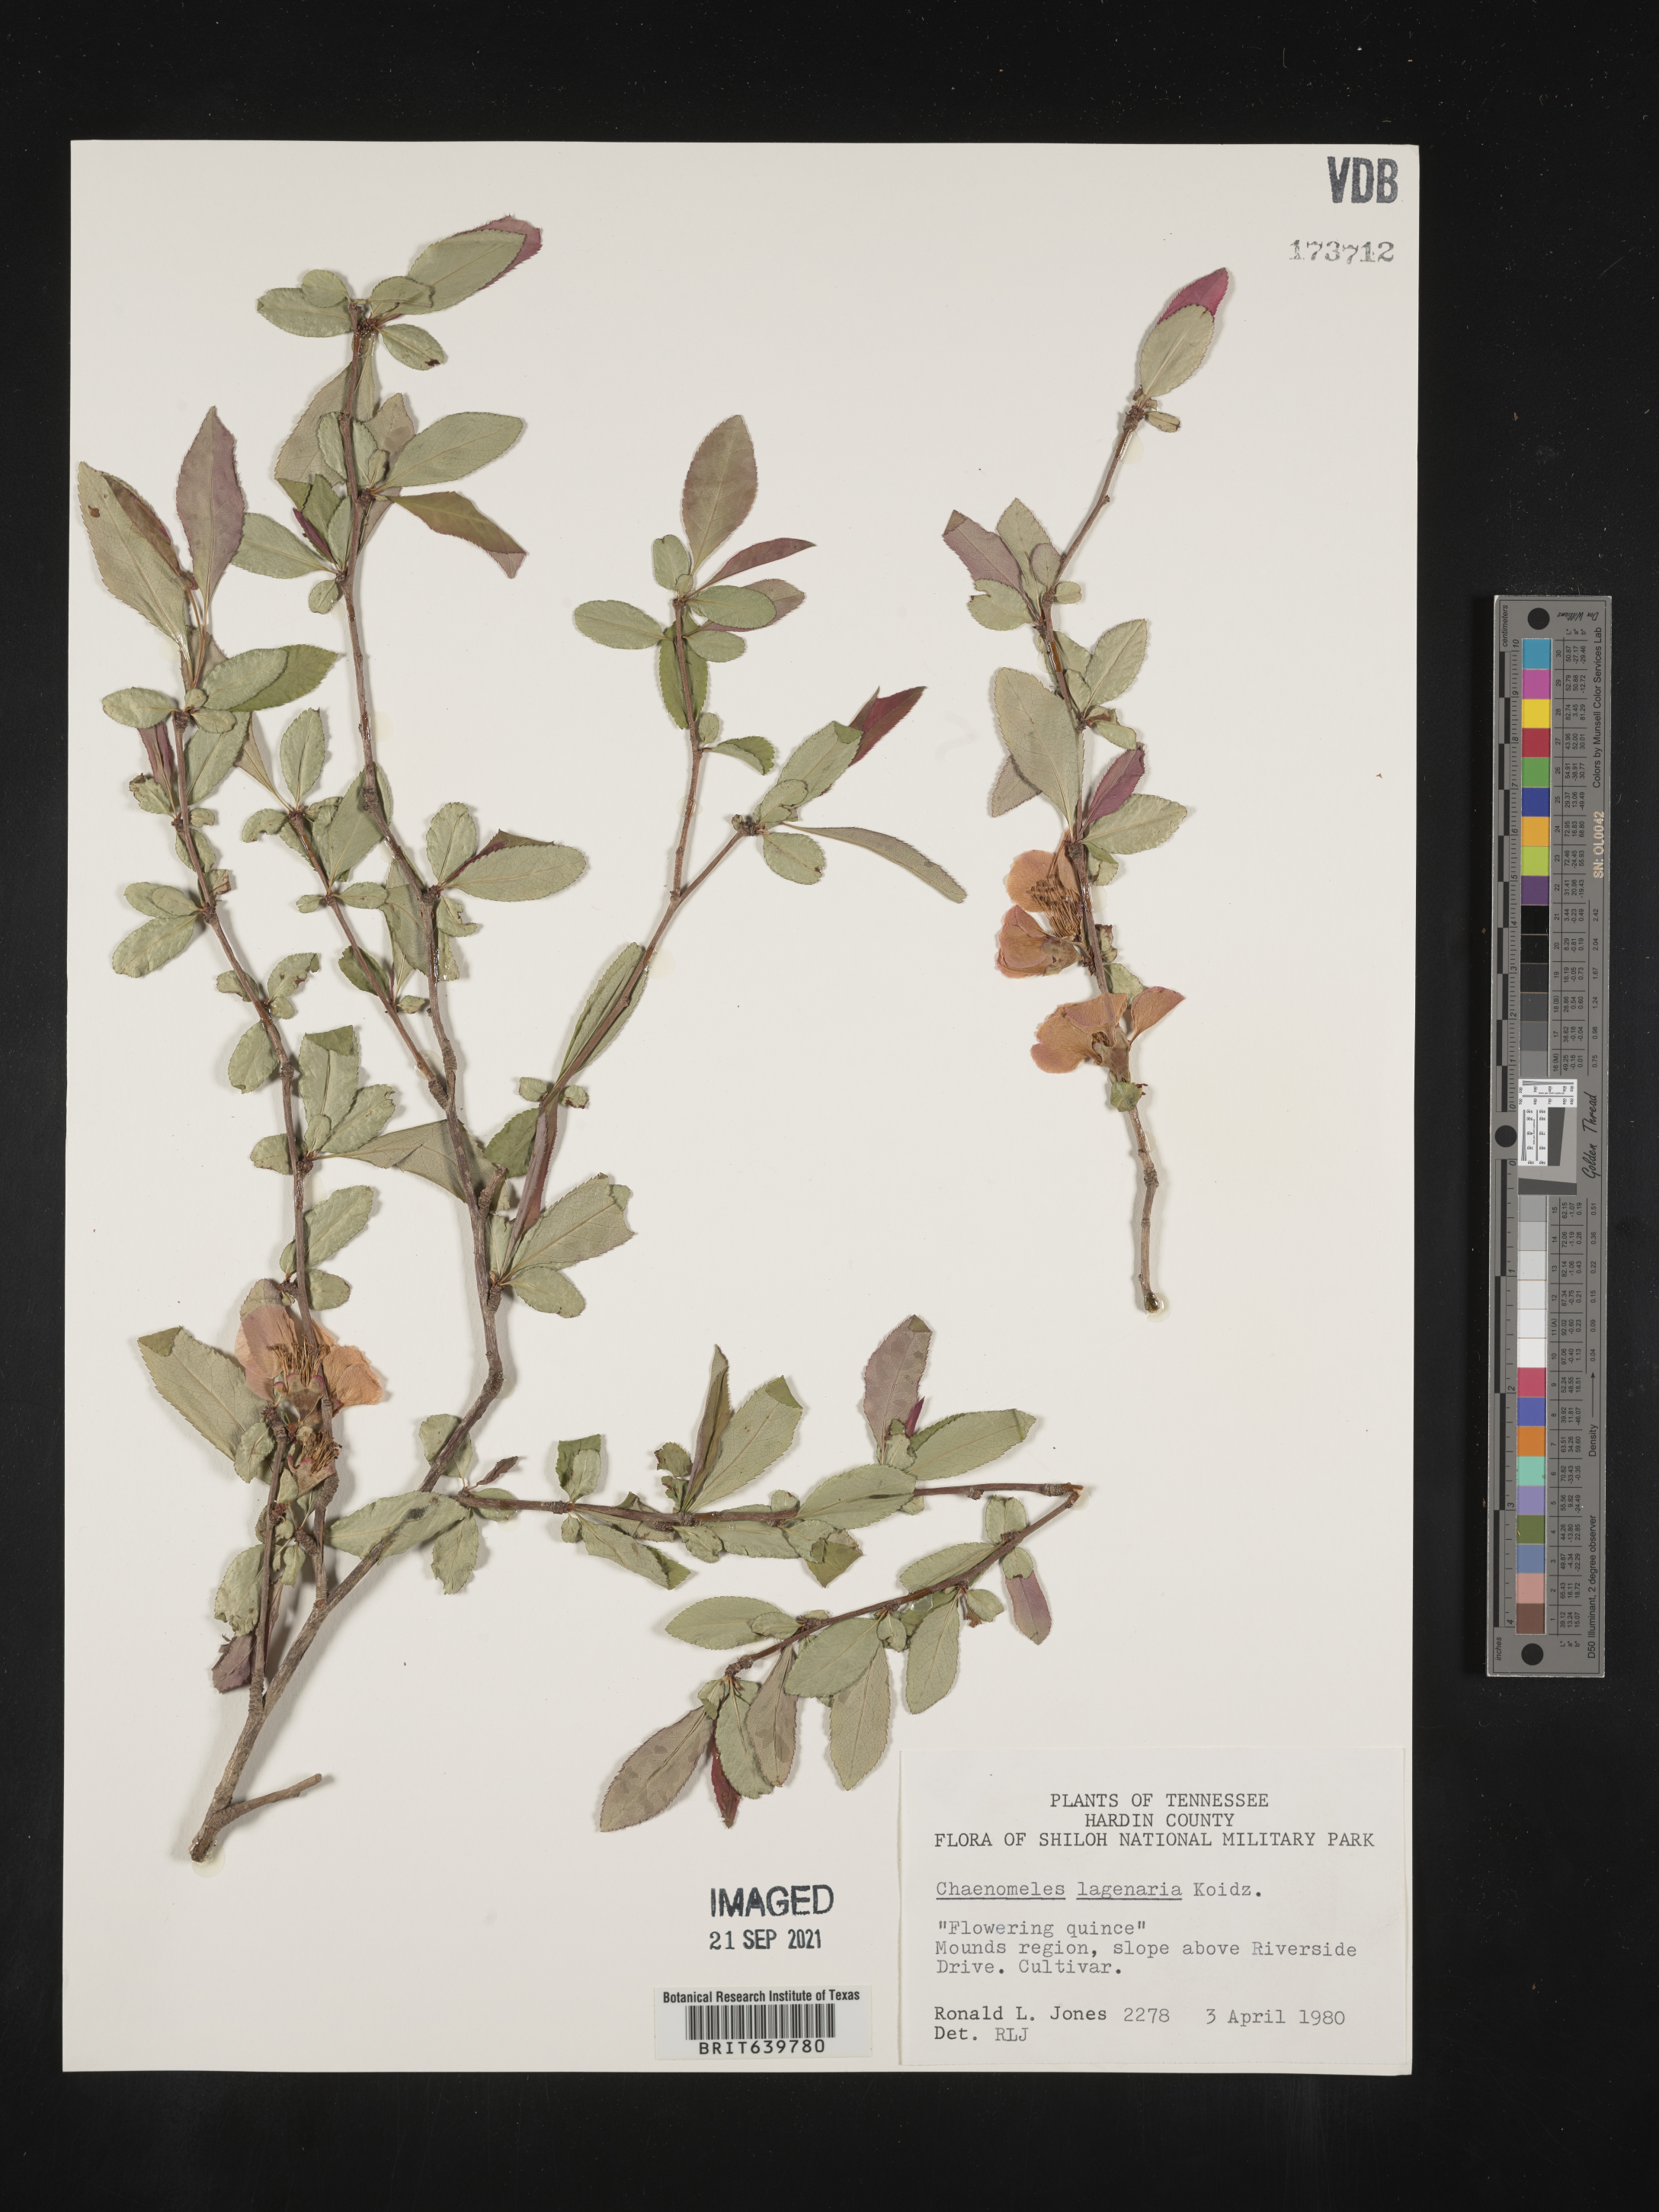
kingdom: Plantae
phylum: Tracheophyta
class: Magnoliopsida
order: Rosales
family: Rosaceae
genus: Chaenomeles
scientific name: Chaenomeles
